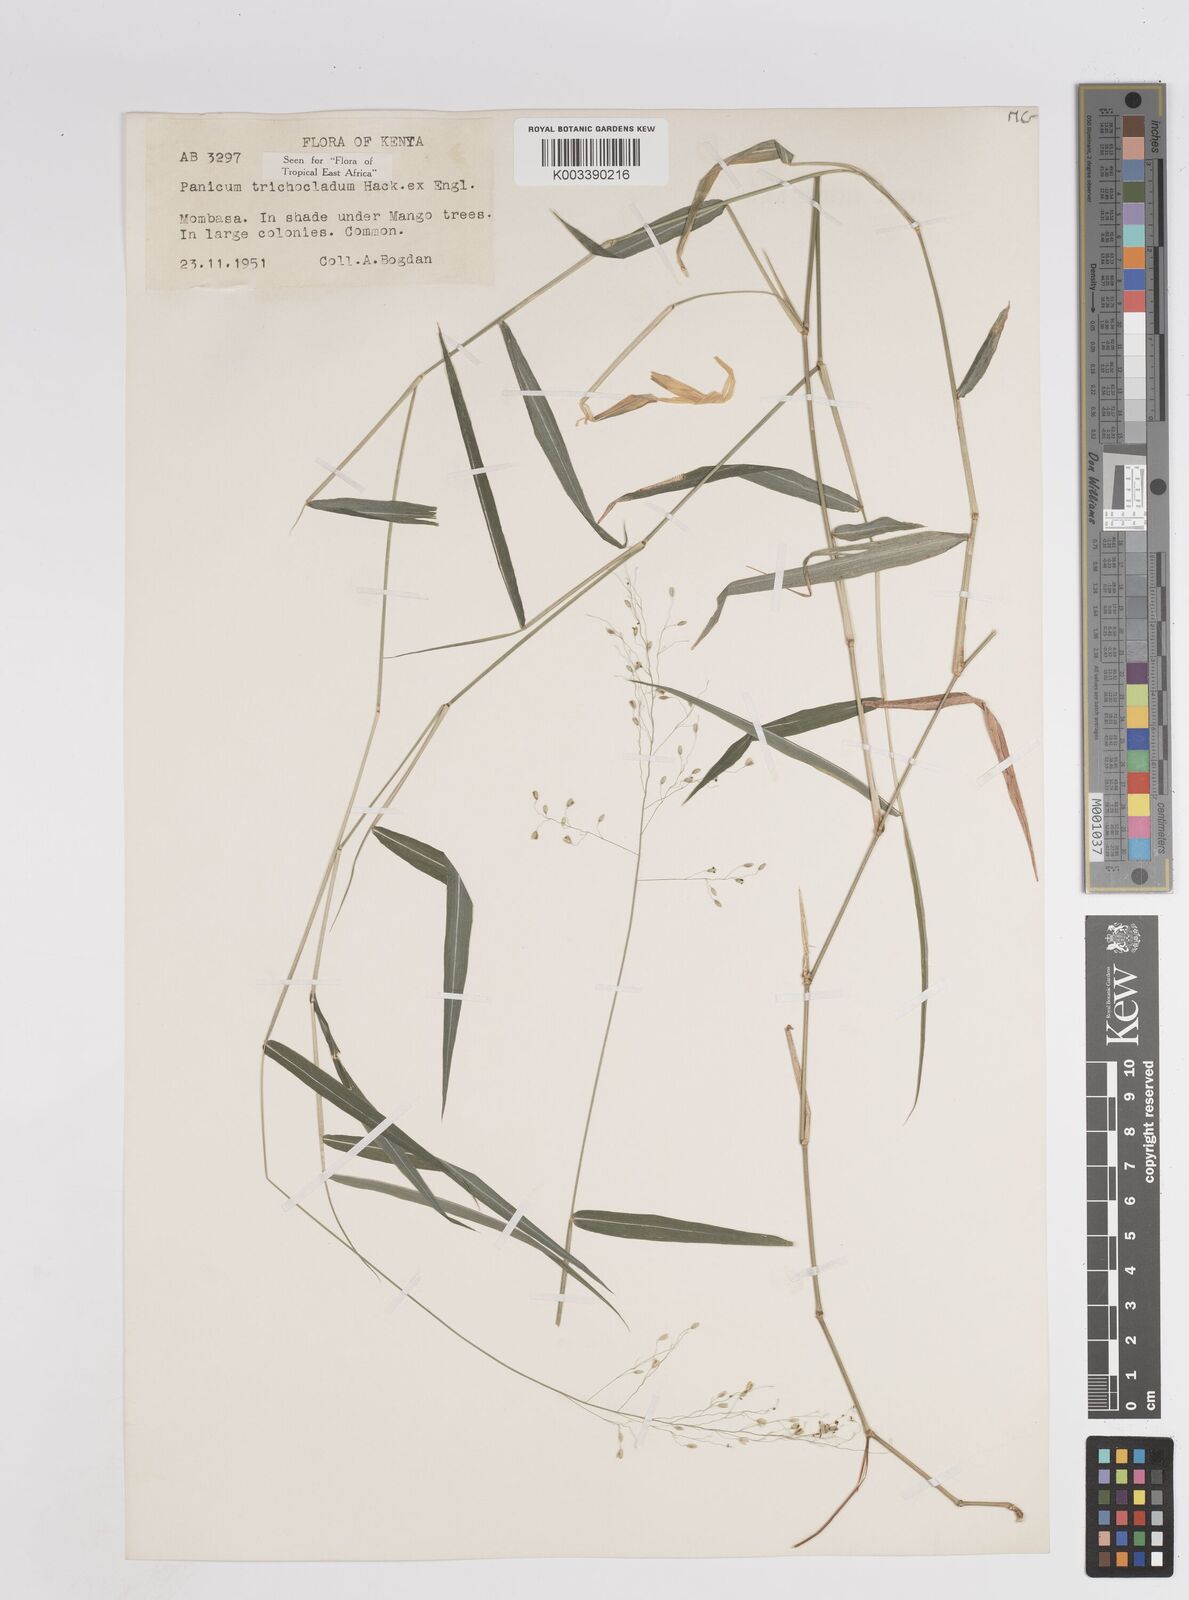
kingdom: Plantae
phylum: Tracheophyta
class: Liliopsida
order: Poales
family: Poaceae
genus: Panicum
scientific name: Panicum trichocladum
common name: Donkey grass
